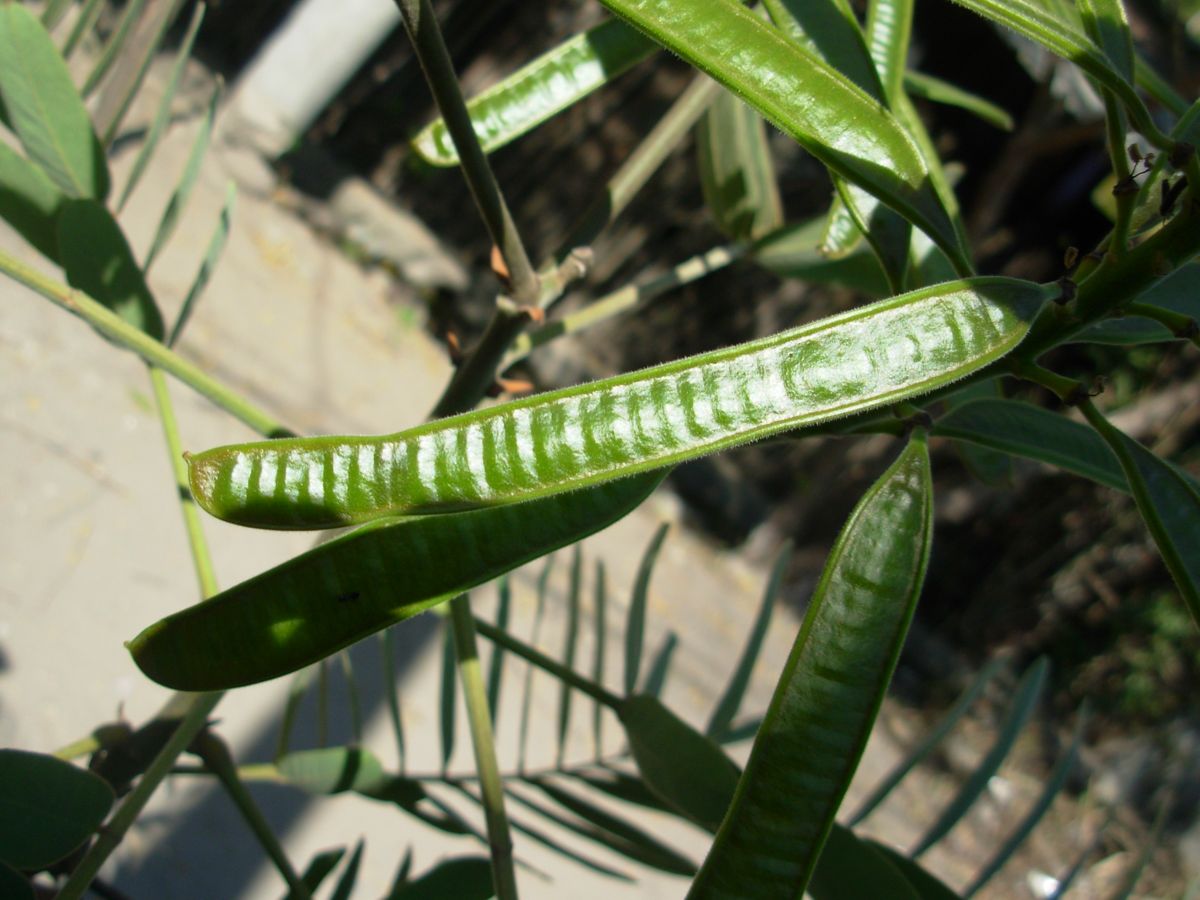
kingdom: Plantae
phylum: Tracheophyta
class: Magnoliopsida
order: Fabales
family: Fabaceae
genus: Senna
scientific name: Senna reticulata
